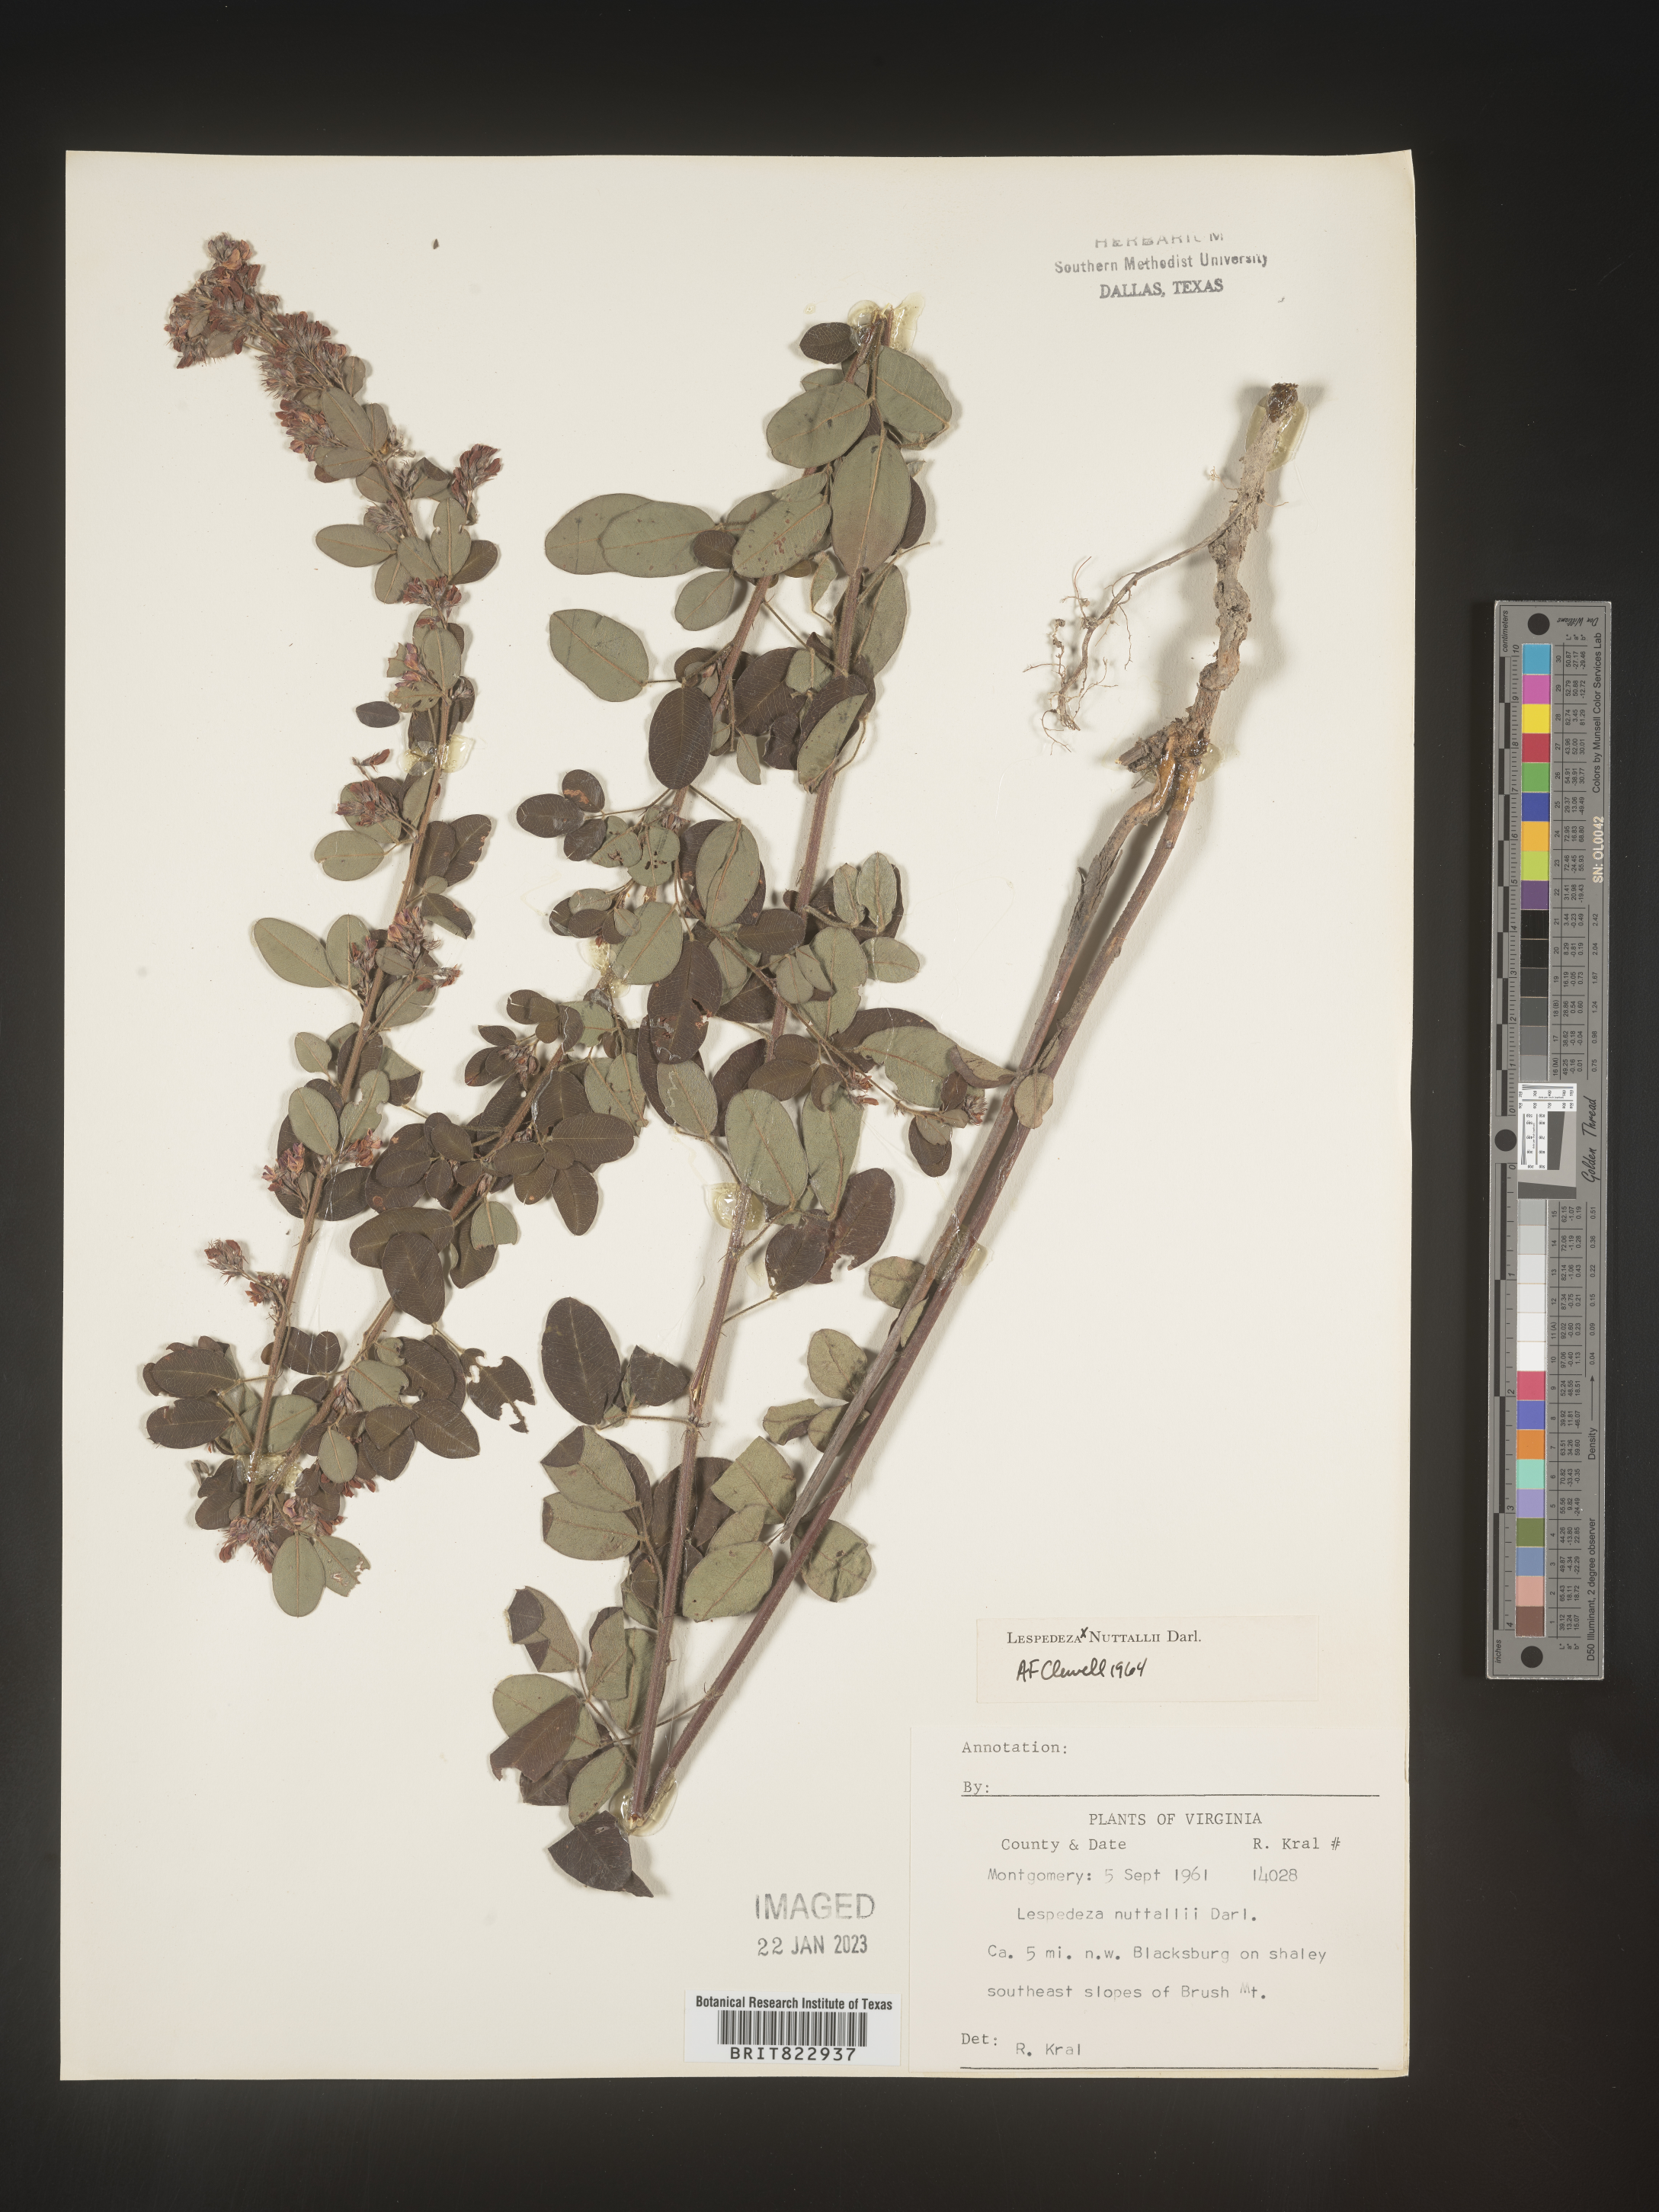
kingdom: Plantae
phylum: Tracheophyta
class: Magnoliopsida
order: Fabales
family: Fabaceae
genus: Lespedeza
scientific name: Lespedeza
